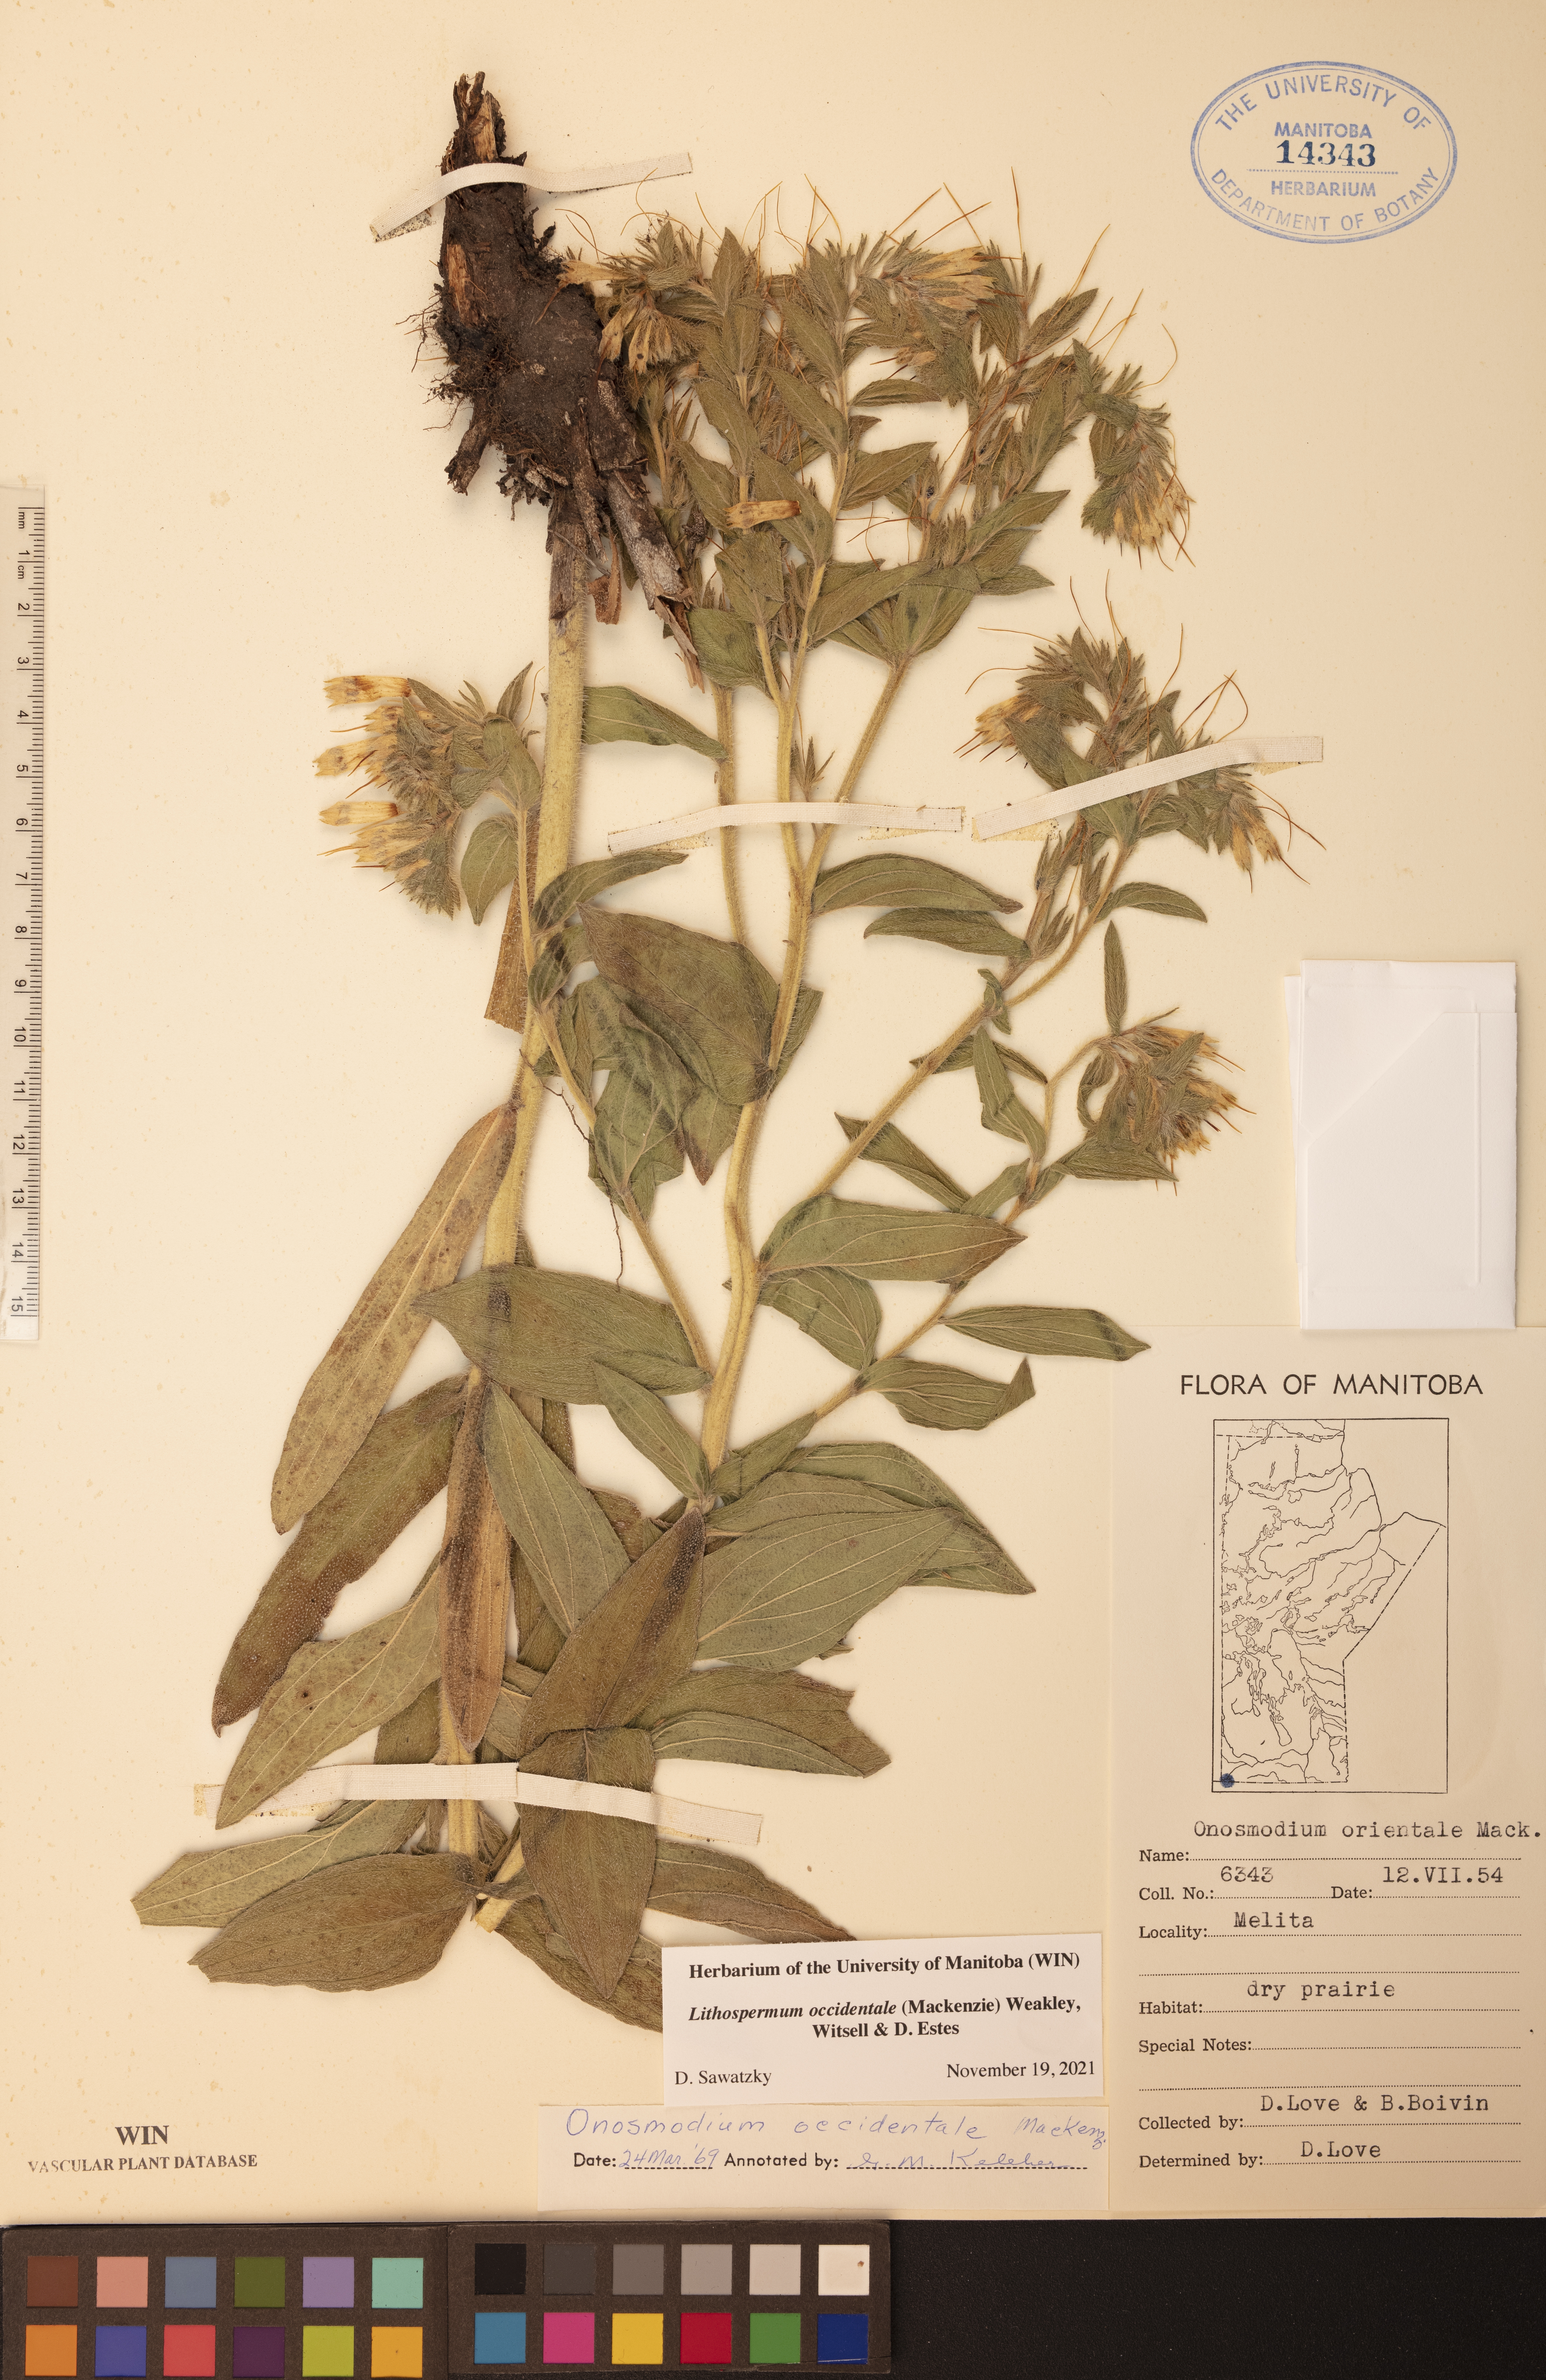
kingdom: Plantae
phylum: Tracheophyta
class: Magnoliopsida
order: Boraginales
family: Boraginaceae
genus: Lithospermum
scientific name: Lithospermum occidentale
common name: Western false gromwell
